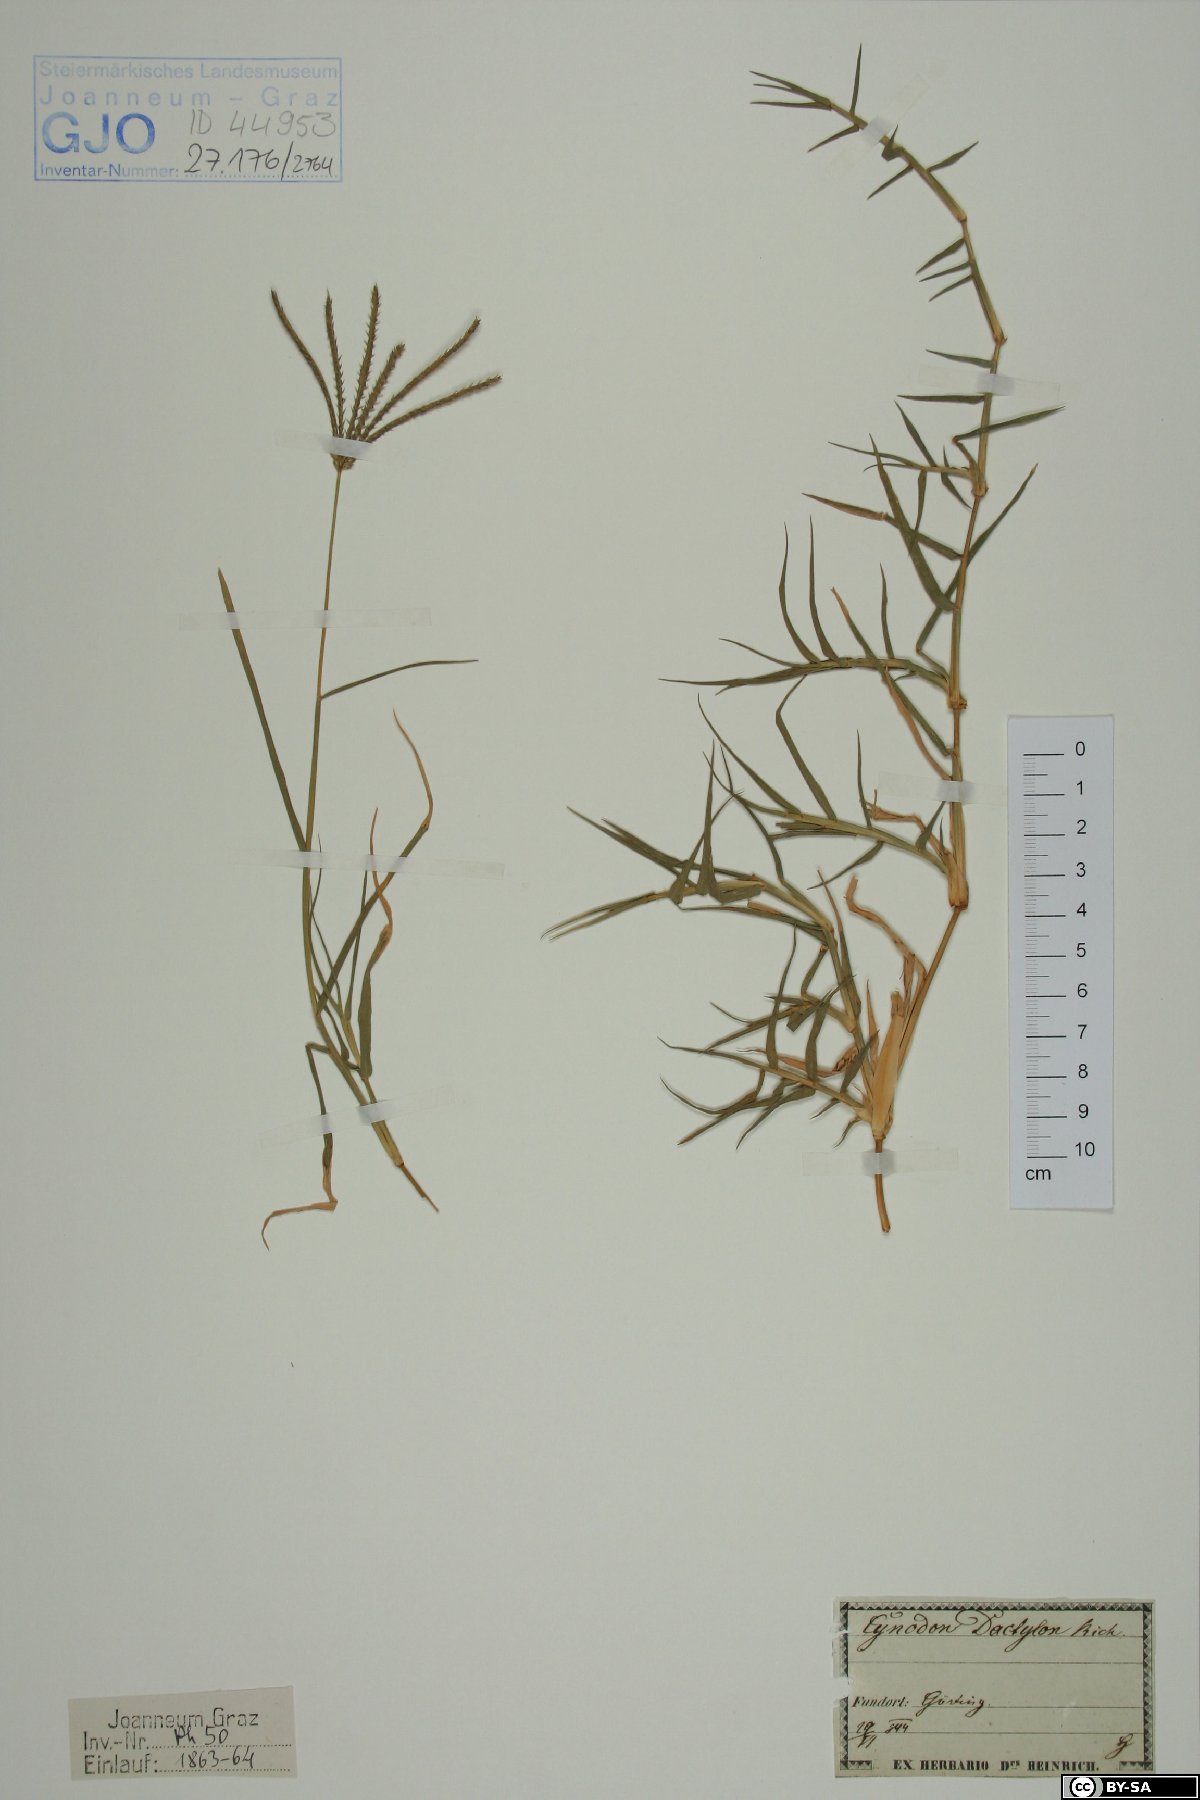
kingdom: Plantae
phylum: Tracheophyta
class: Liliopsida
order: Poales
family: Poaceae
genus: Cynodon
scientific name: Cynodon dactylon
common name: Bermuda grass
